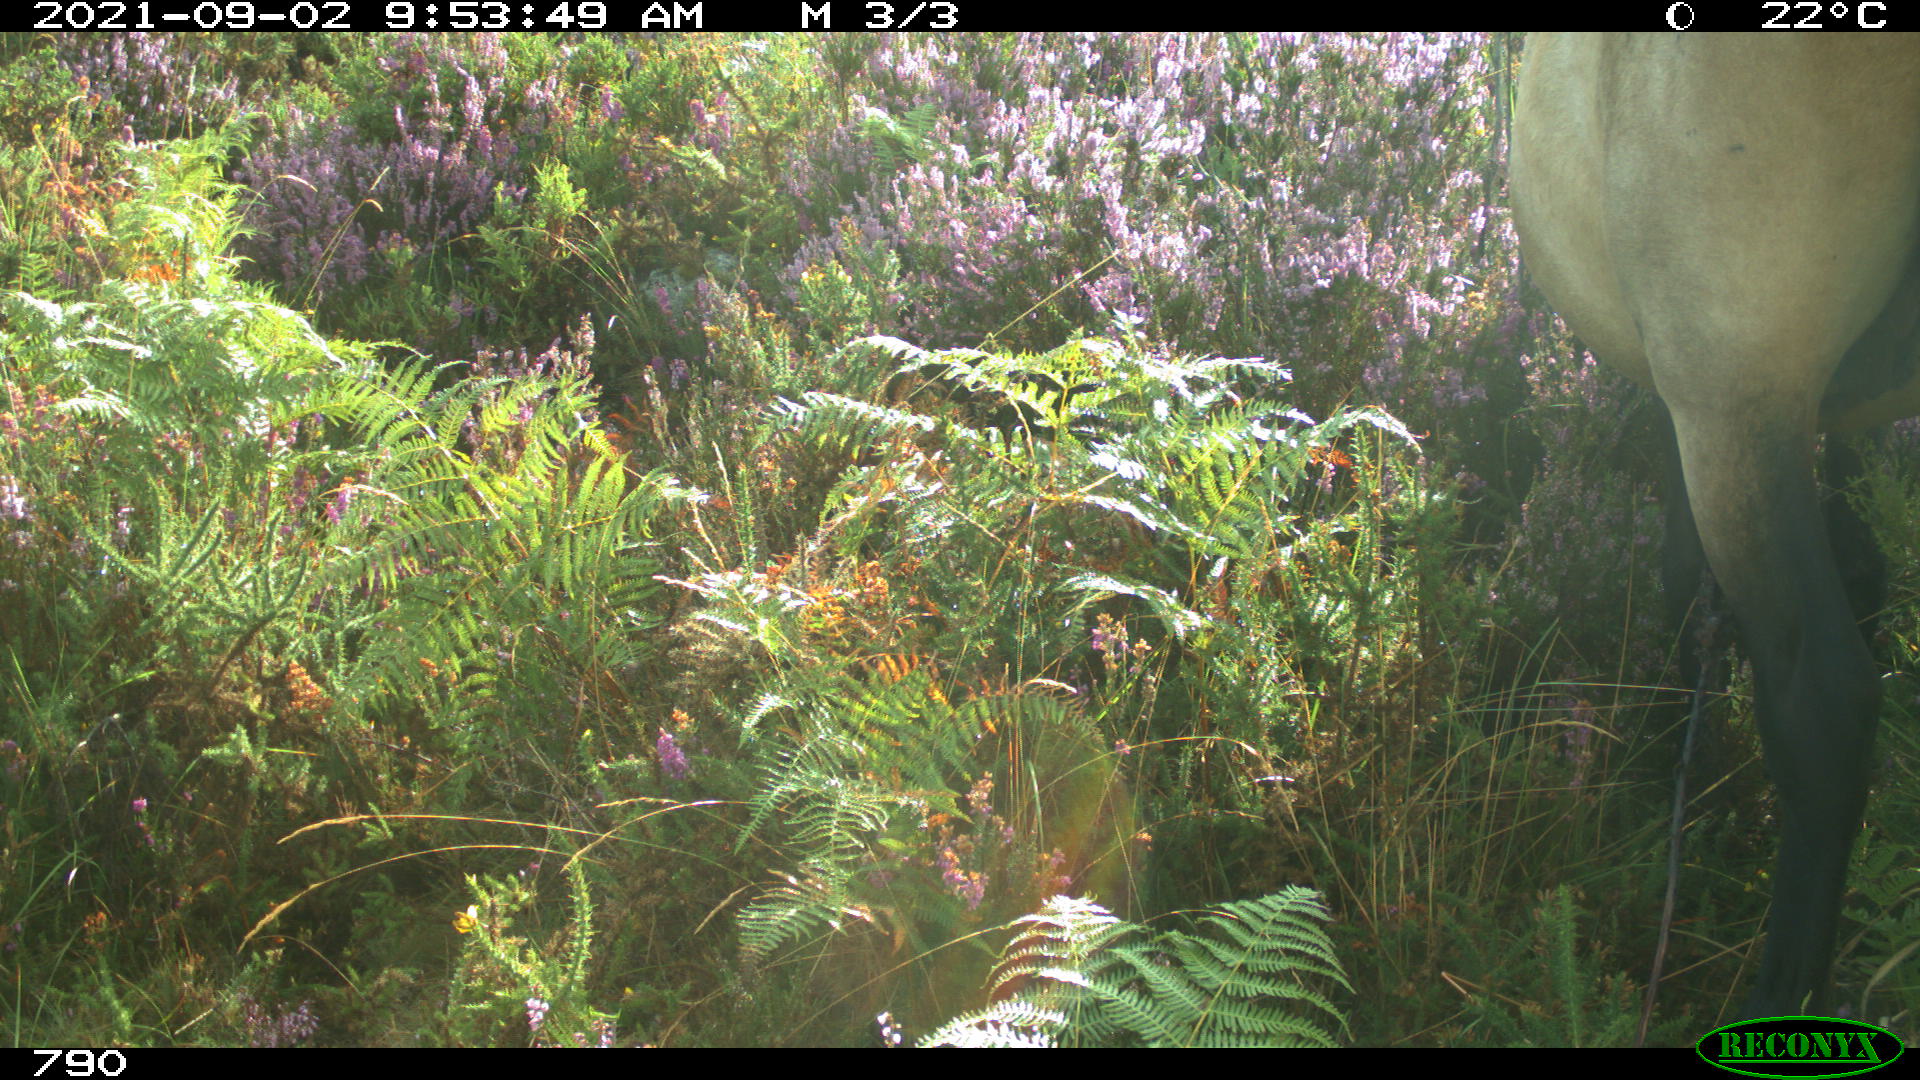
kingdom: Animalia
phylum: Chordata
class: Mammalia
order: Perissodactyla
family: Equidae
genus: Equus
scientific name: Equus caballus
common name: Horse
